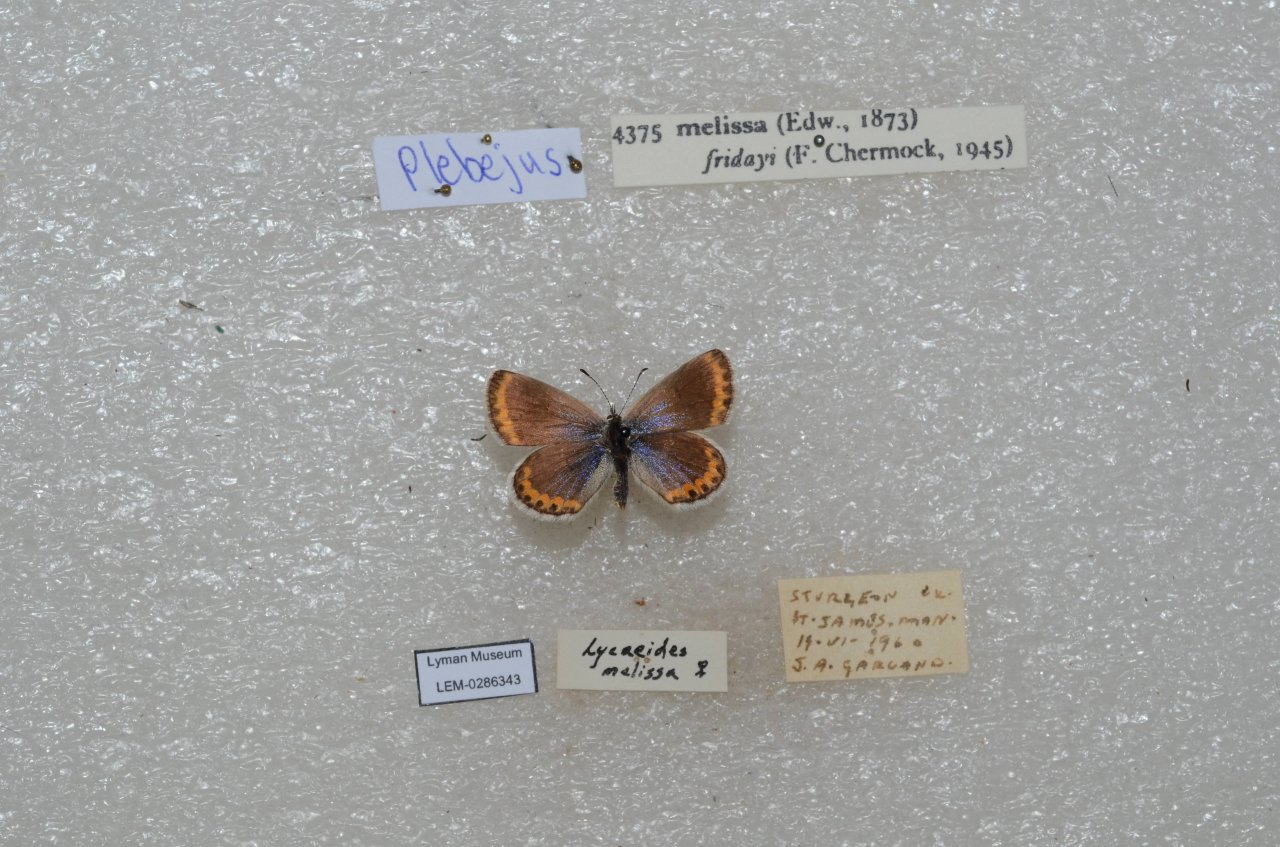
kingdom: Animalia
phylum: Arthropoda
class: Insecta
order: Lepidoptera
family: Lycaenidae
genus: Lycaeides
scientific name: Lycaeides melissa
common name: Melissa Blue
